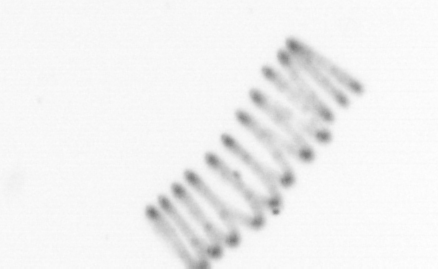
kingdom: Chromista
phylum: Ochrophyta
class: Bacillariophyceae
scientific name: Bacillariophyceae
